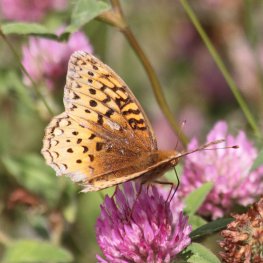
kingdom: Animalia
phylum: Arthropoda
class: Insecta
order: Lepidoptera
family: Nymphalidae
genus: Speyeria
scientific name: Speyeria aphrodite
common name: Aphrodite Fritillary
